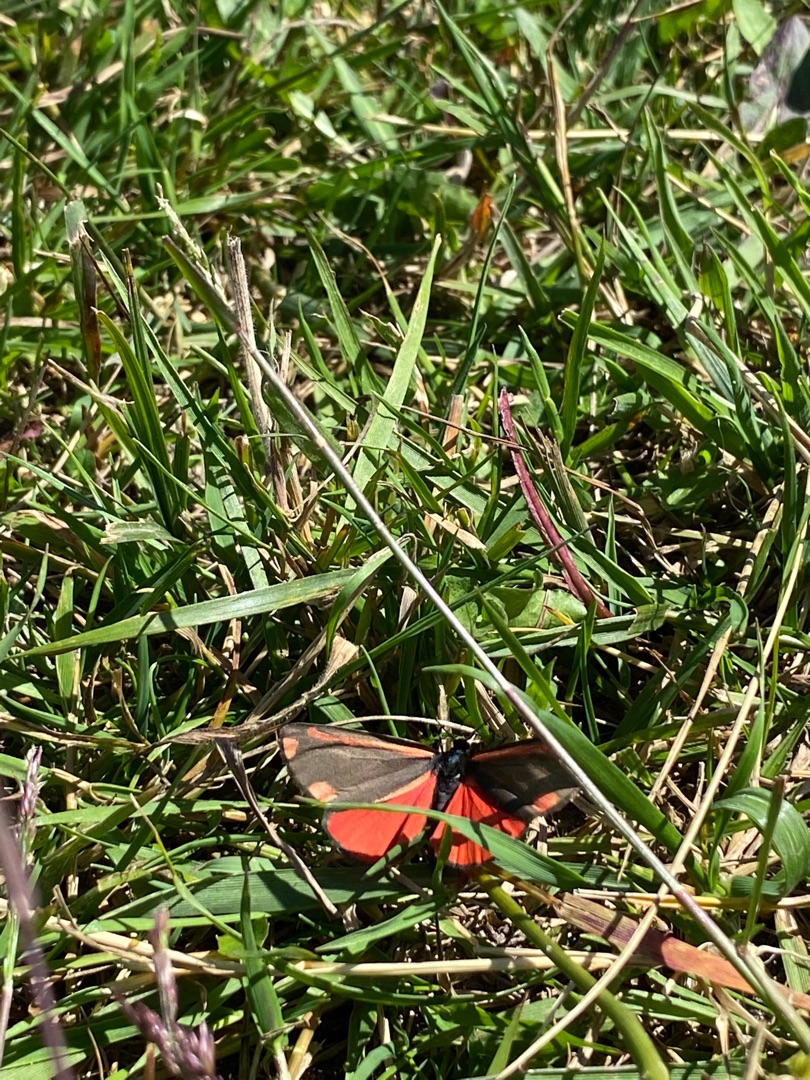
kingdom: Animalia
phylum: Arthropoda
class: Insecta
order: Lepidoptera
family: Erebidae
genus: Tyria
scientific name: Tyria jacobaeae
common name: Blodplet
